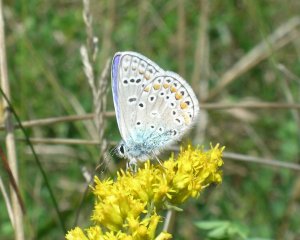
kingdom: Animalia
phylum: Arthropoda
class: Insecta
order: Lepidoptera
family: Lycaenidae
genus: Polyommatus
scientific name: Polyommatus icarus
